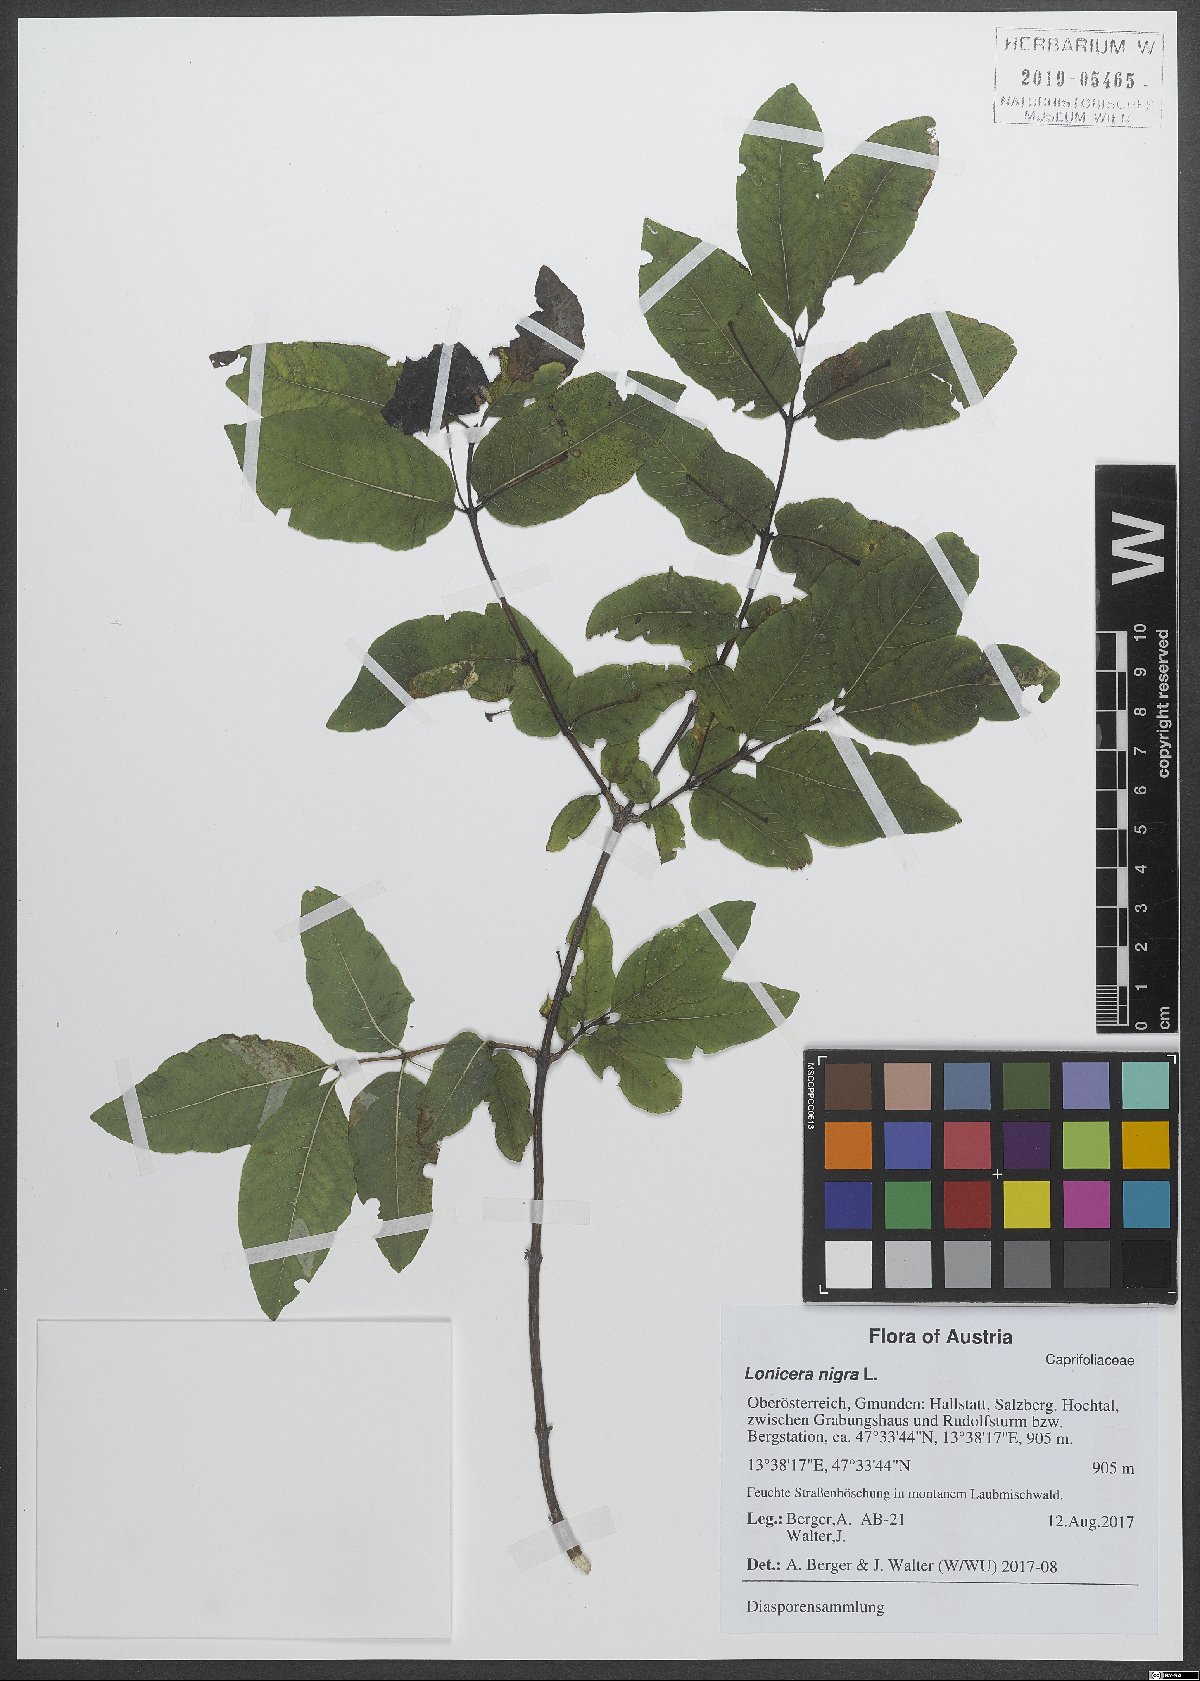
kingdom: Plantae
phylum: Tracheophyta
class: Magnoliopsida
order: Dipsacales
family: Caprifoliaceae
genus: Lonicera
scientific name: Lonicera nigra
